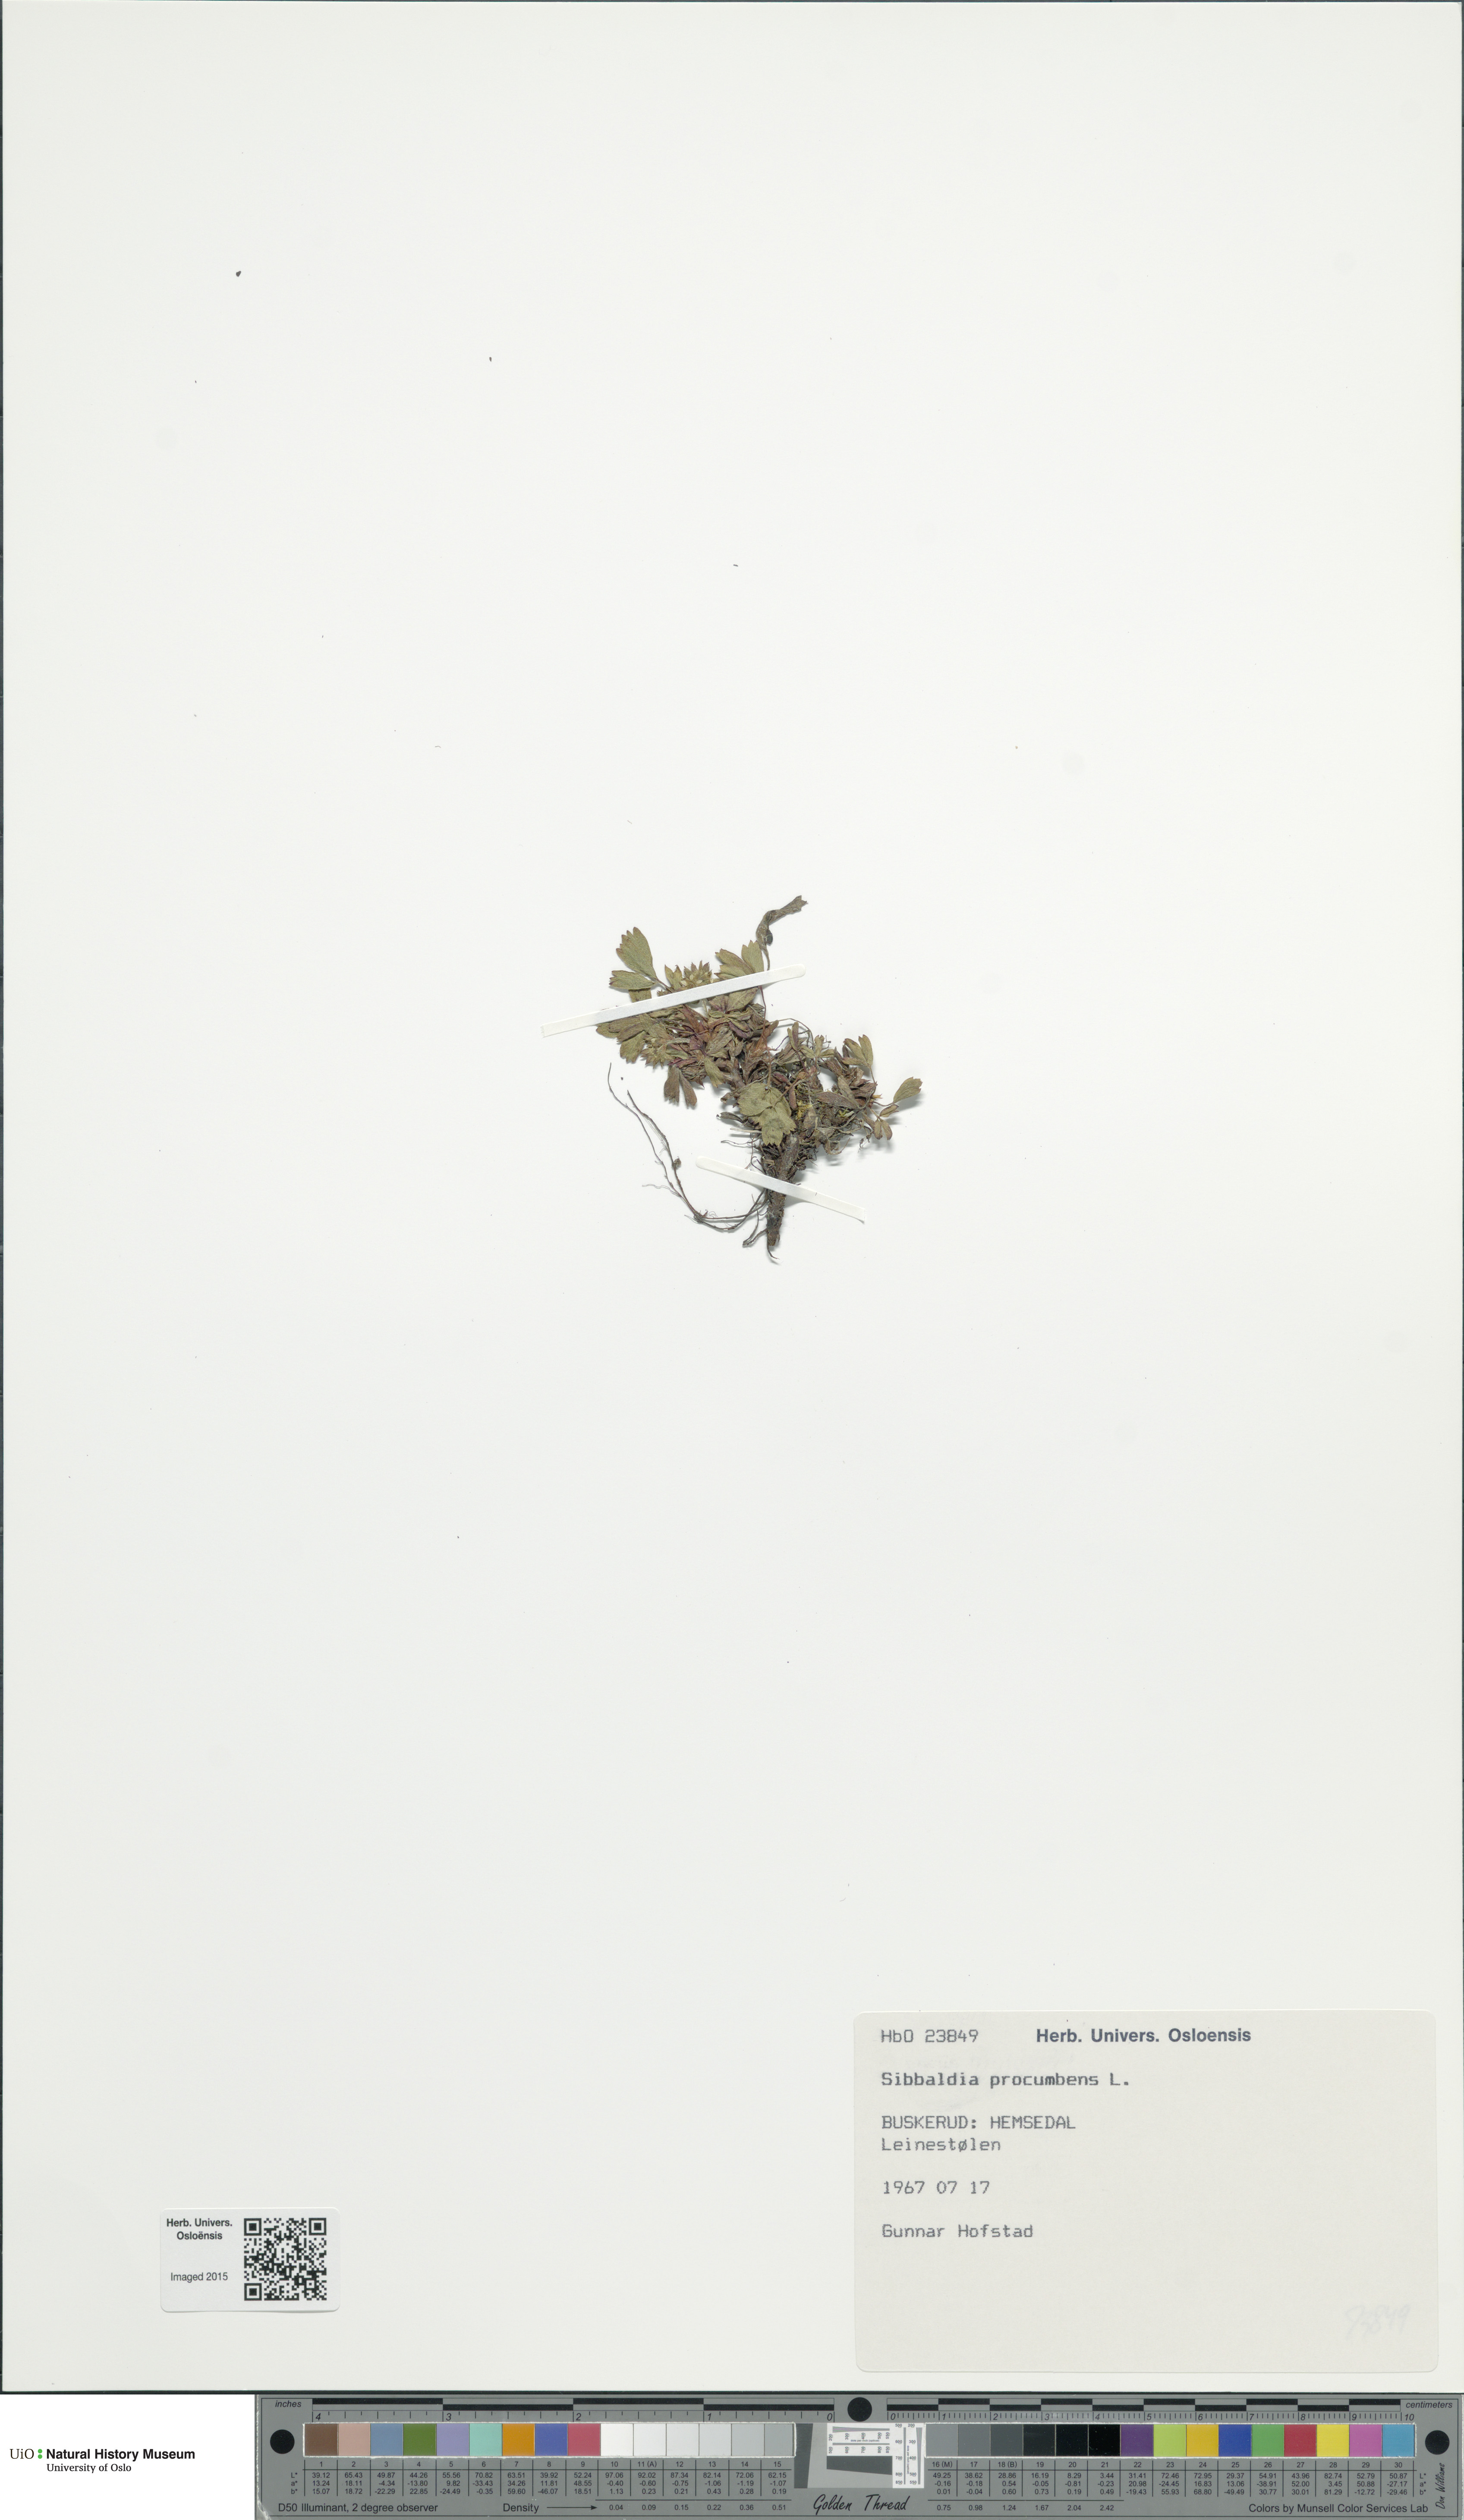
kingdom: Plantae
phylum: Tracheophyta
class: Magnoliopsida
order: Rosales
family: Rosaceae
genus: Sibbaldia
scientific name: Sibbaldia procumbens
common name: Creeping sibbaldia
